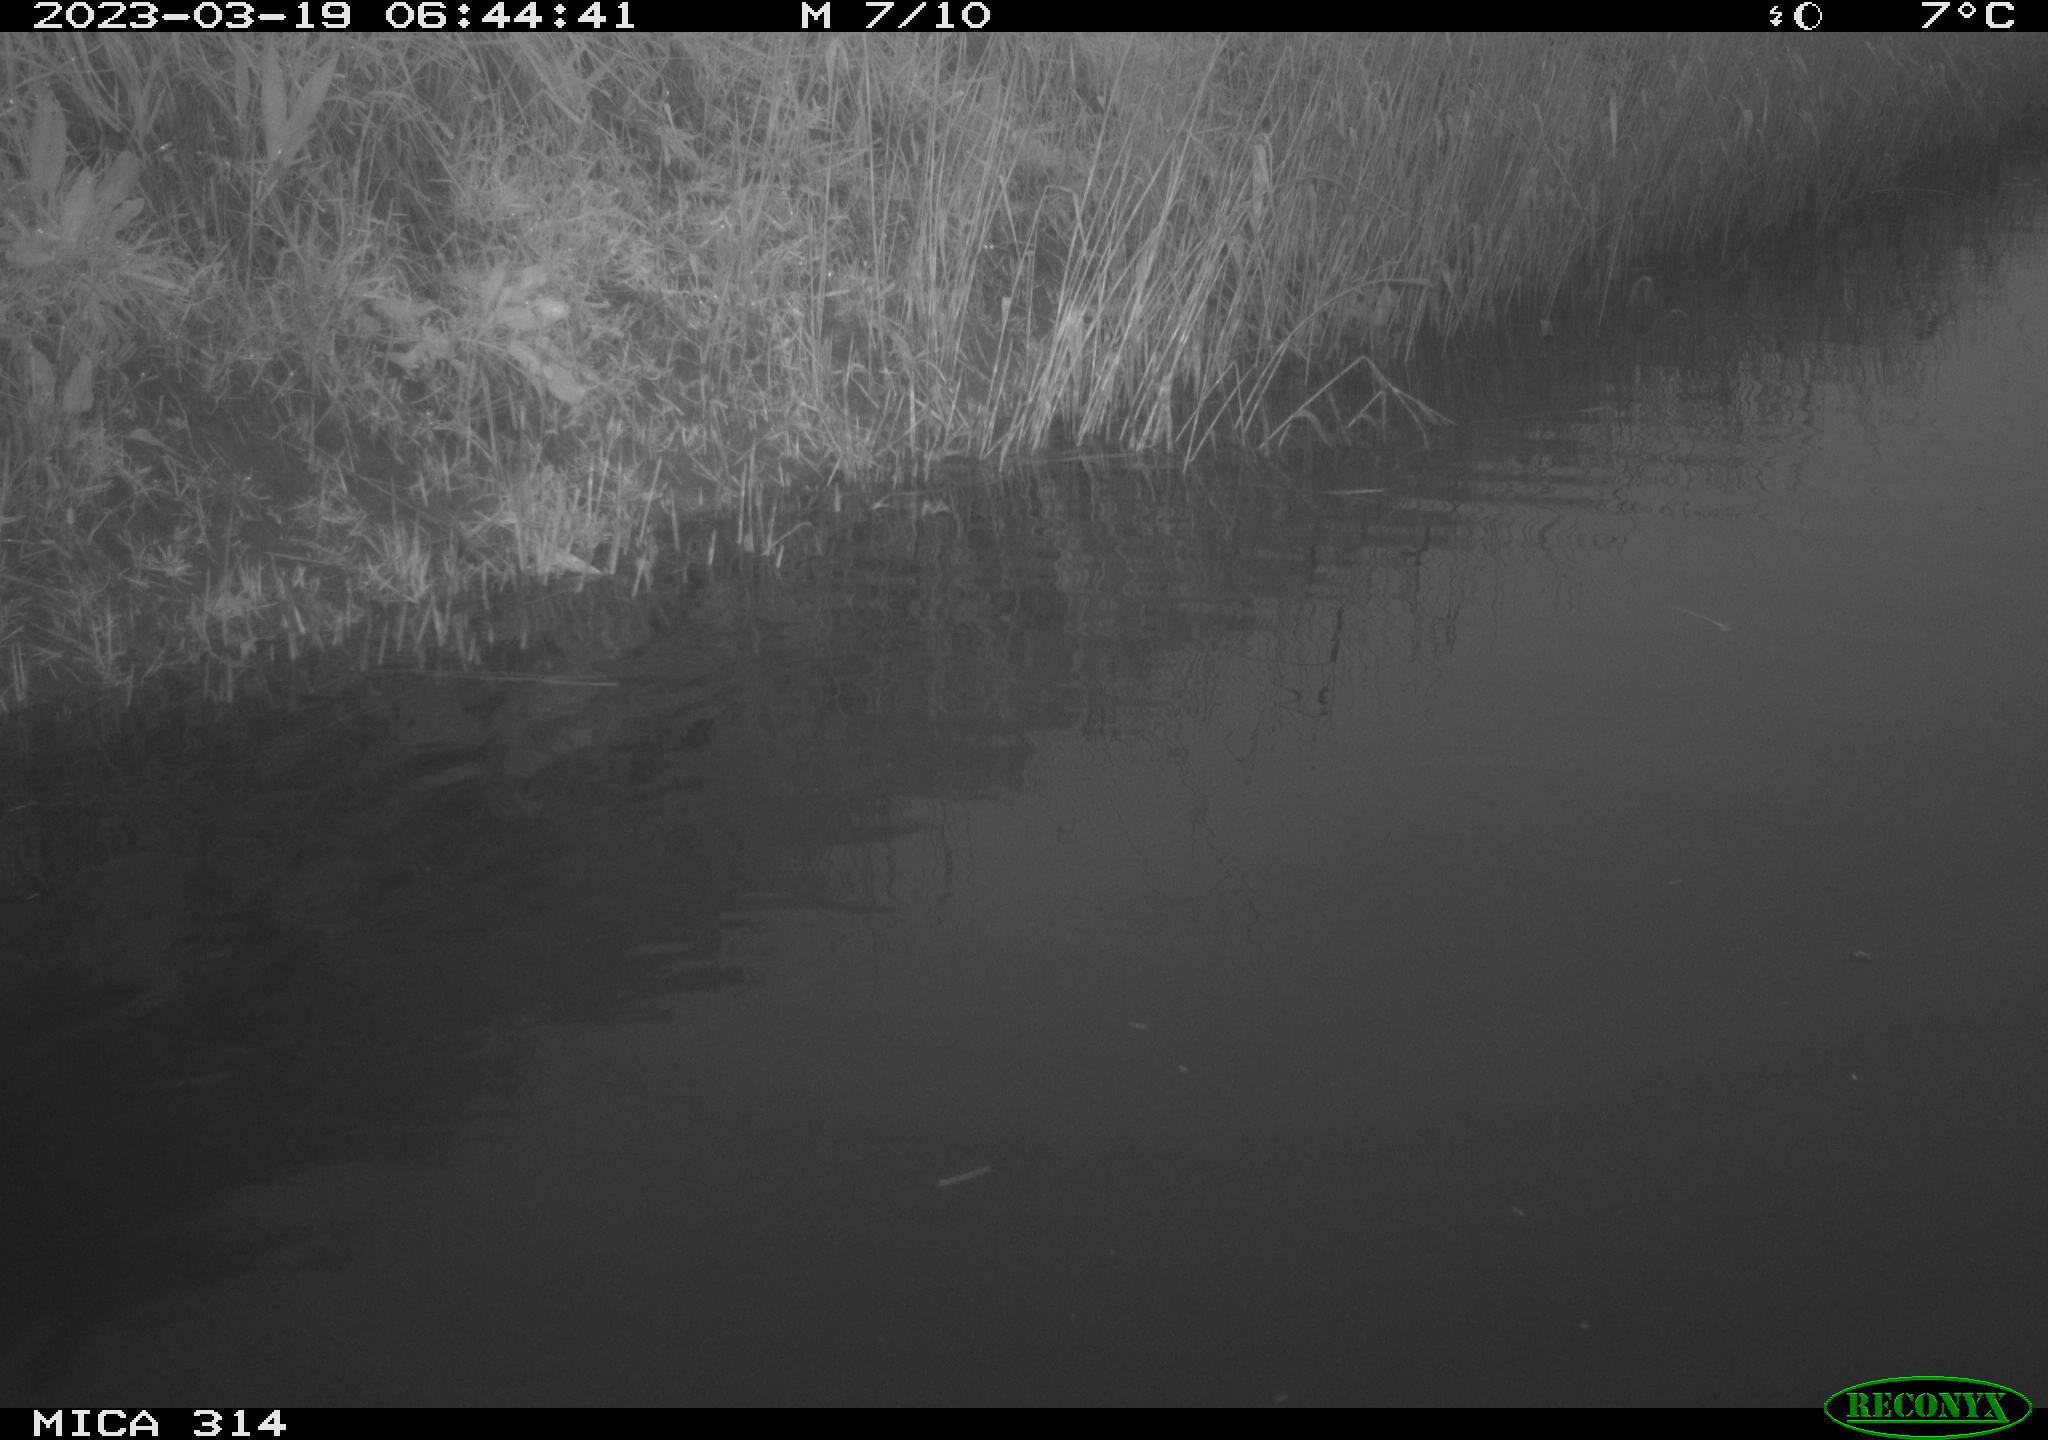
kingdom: Animalia
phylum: Chordata
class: Aves
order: Anseriformes
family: Anatidae
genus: Anas
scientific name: Anas
